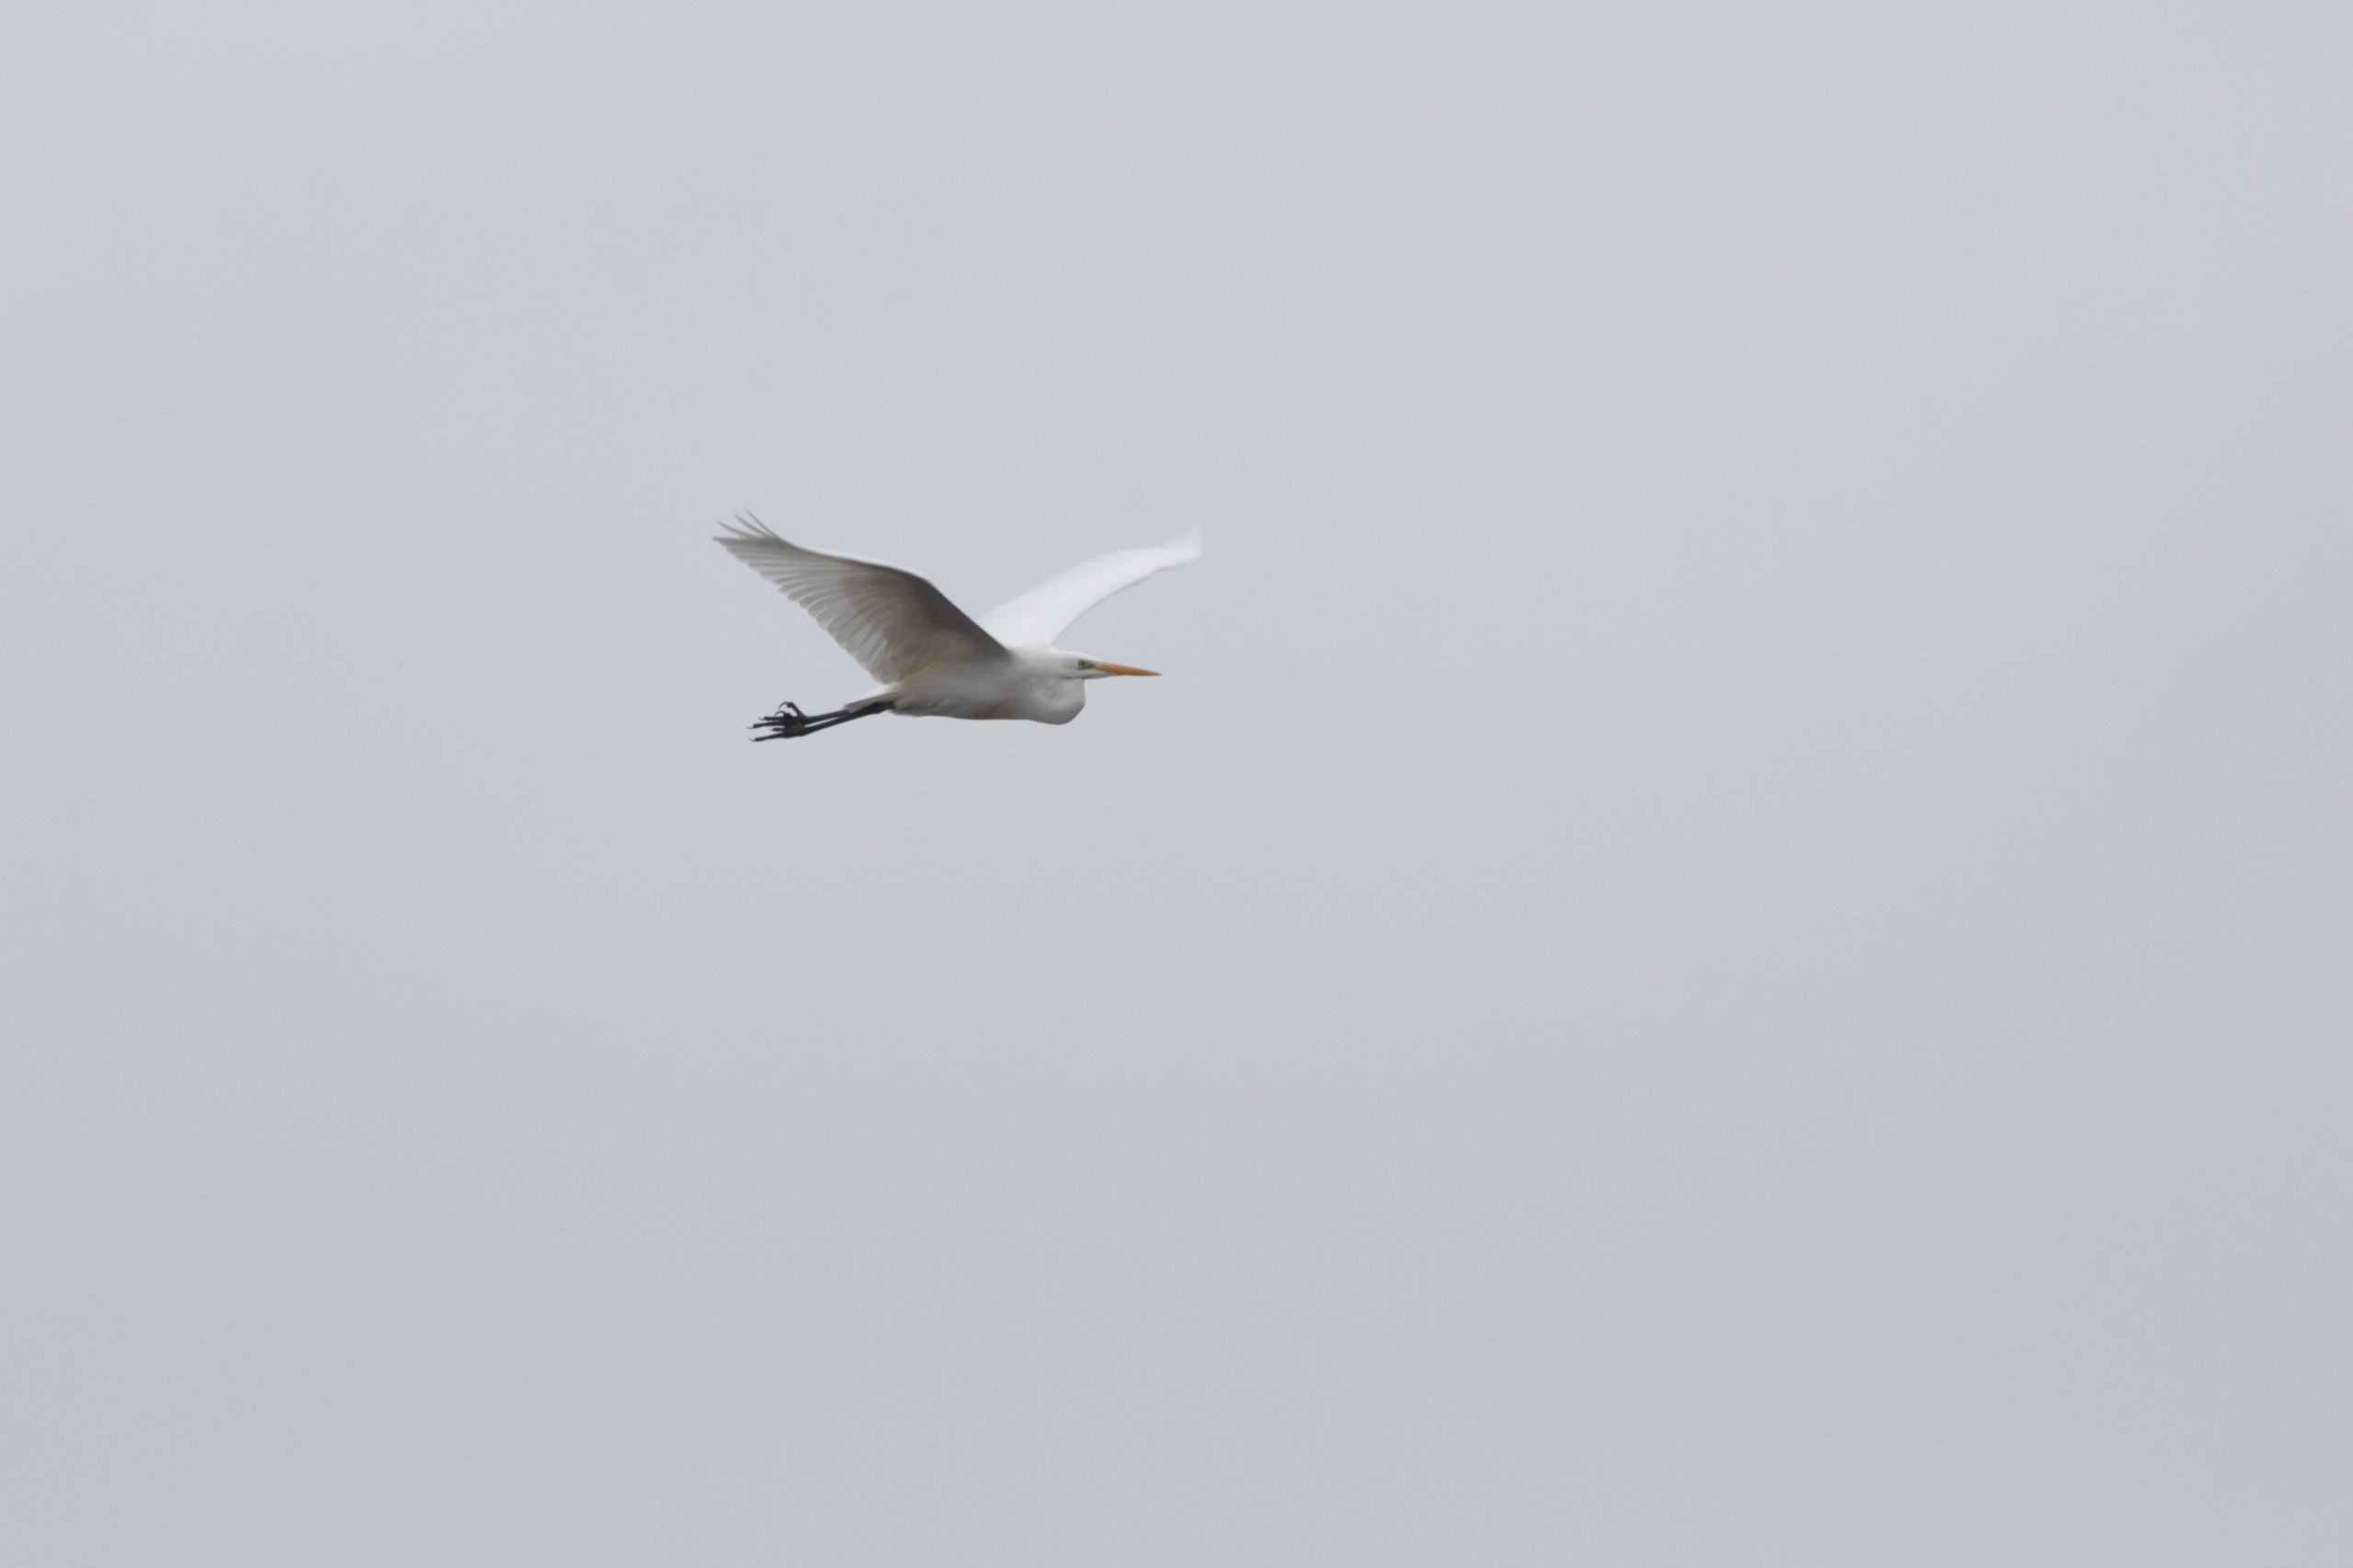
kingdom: Animalia
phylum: Chordata
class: Aves
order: Pelecaniformes
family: Ardeidae
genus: Ardea
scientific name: Ardea alba
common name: Sølvhejre
